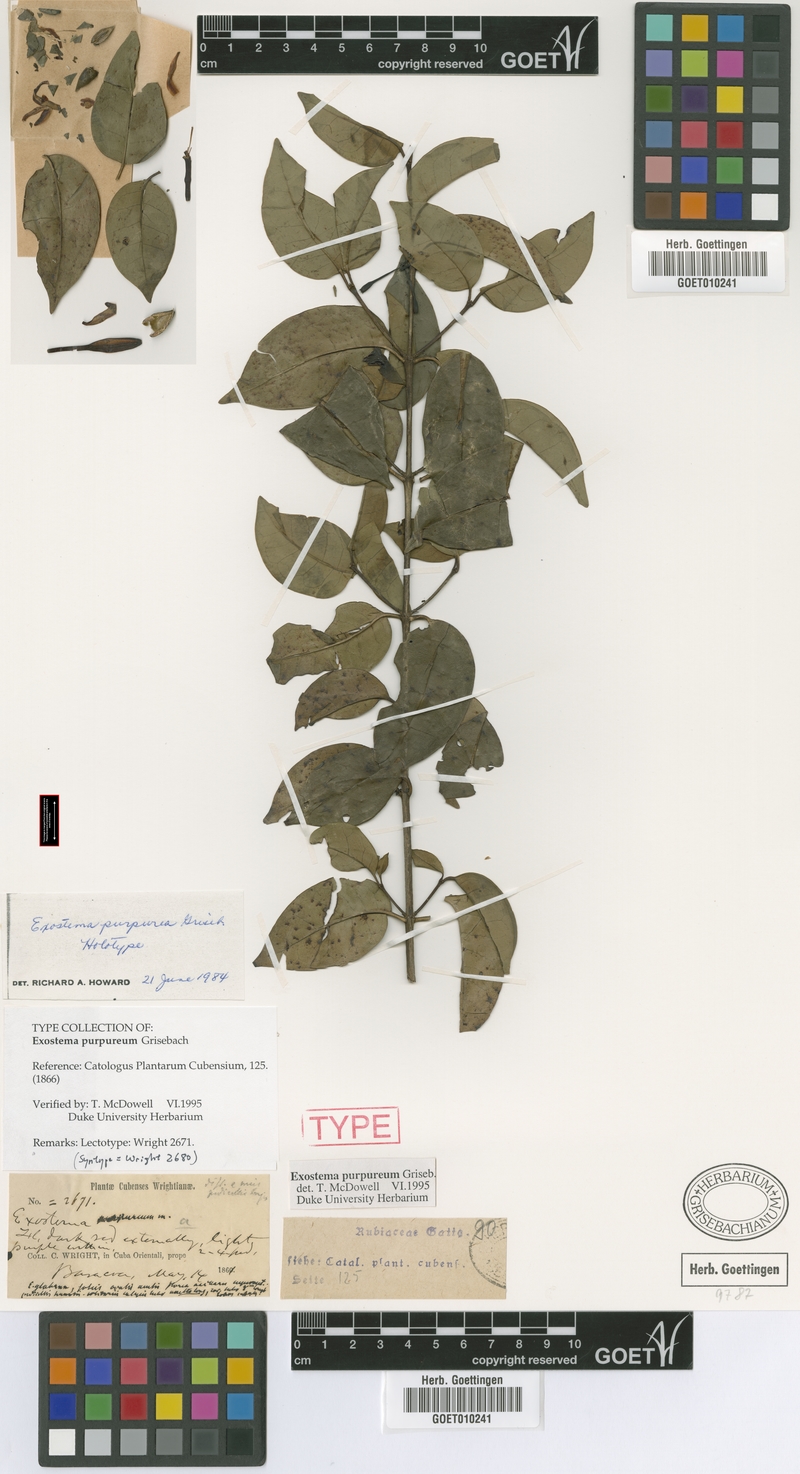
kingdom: Plantae
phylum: Tracheophyta
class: Magnoliopsida
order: Gentianales
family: Rubiaceae
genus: Exostema
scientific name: Exostema purpureum
